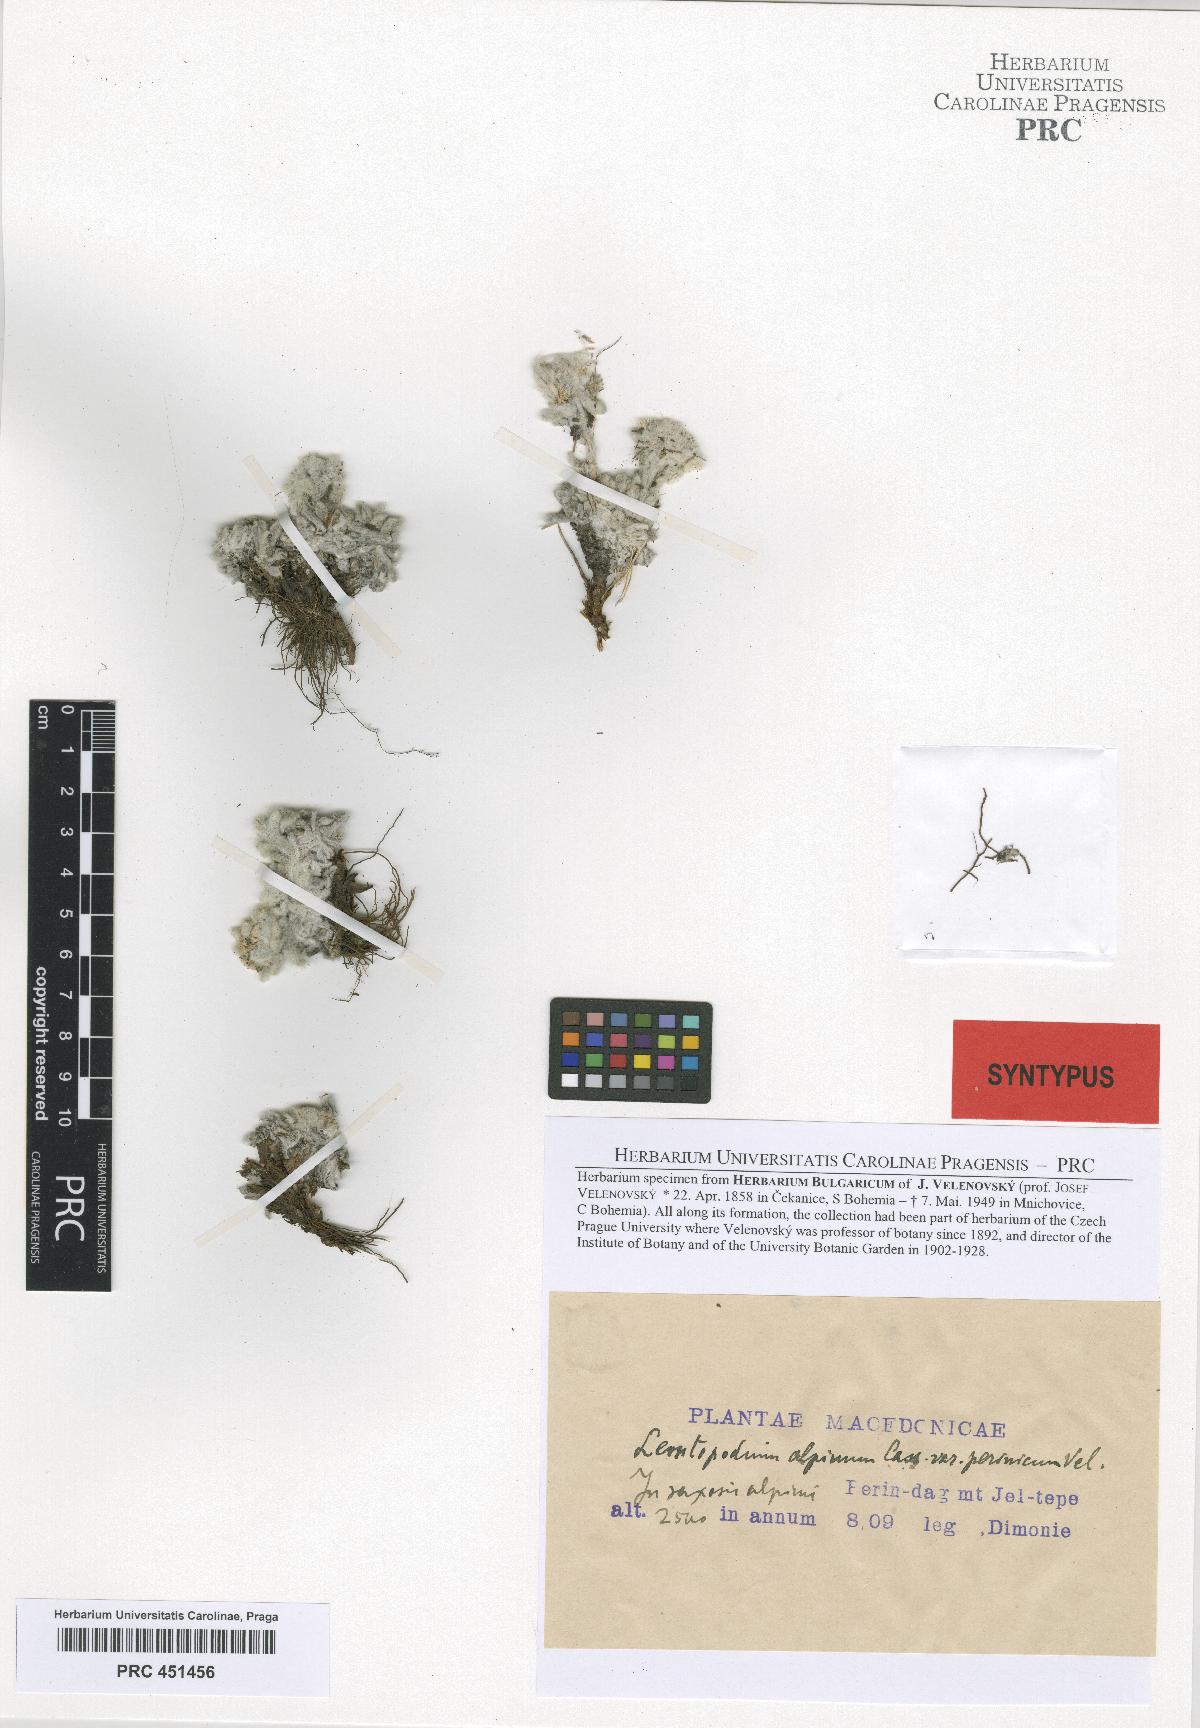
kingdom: Plantae
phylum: Tracheophyta
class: Magnoliopsida
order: Asterales
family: Asteraceae
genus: Leontopodium
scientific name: Leontopodium nivale
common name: Edelweiss
